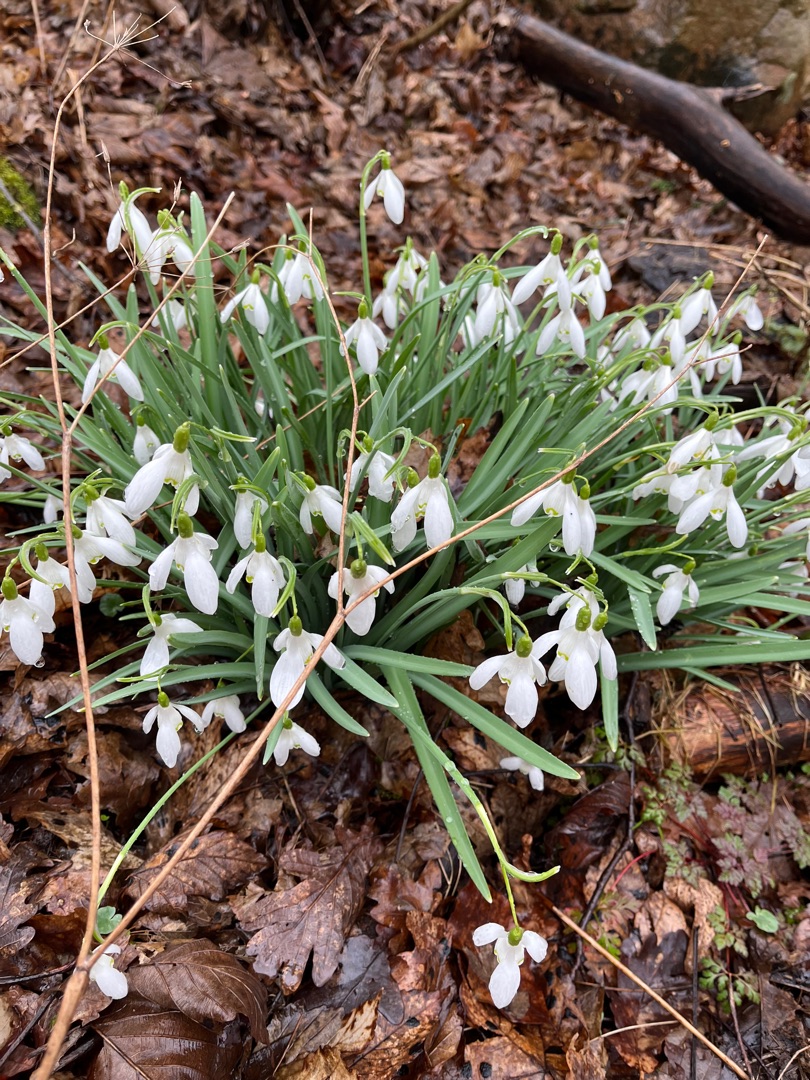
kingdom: Plantae
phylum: Tracheophyta
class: Liliopsida
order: Asparagales
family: Amaryllidaceae
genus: Galanthus
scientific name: Galanthus nivalis
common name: Vintergæk
